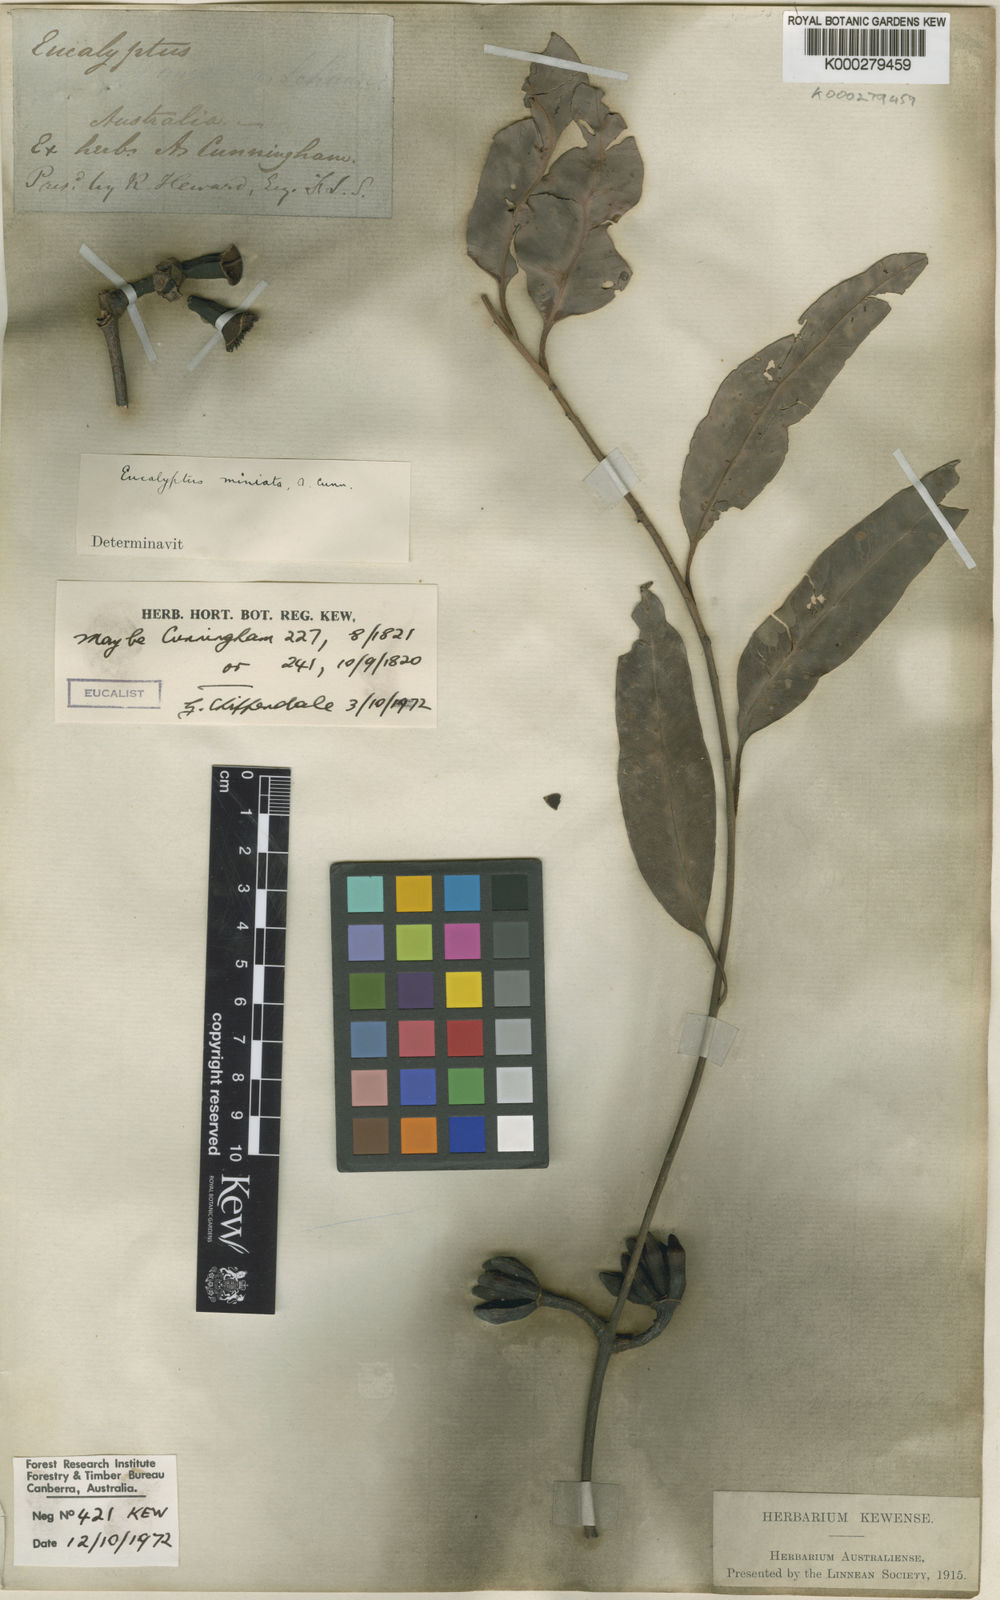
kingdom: Plantae
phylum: Tracheophyta
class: Magnoliopsida
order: Myrtales
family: Myrtaceae
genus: Eucalyptus
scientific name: Eucalyptus miniata
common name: Darwin-woollybutt
